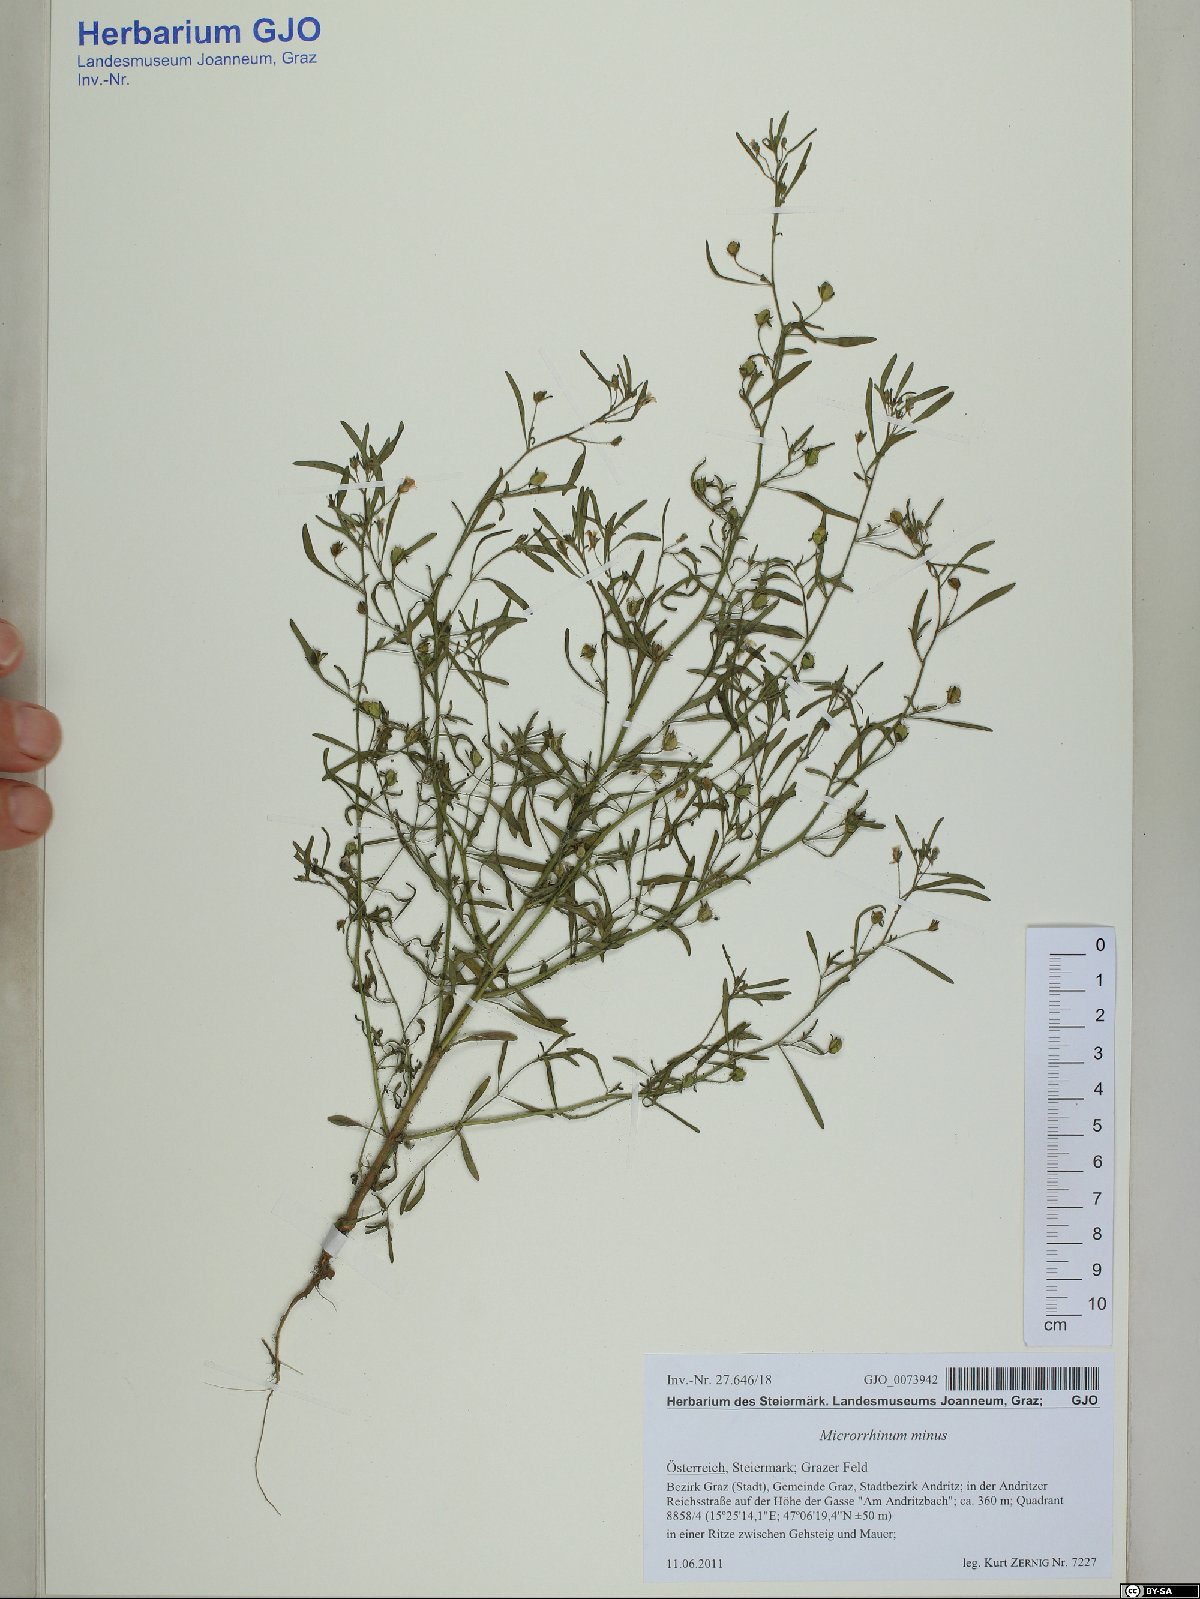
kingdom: Plantae
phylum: Tracheophyta
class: Magnoliopsida
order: Lamiales
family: Plantaginaceae
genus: Chaenorhinum
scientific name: Chaenorhinum minus
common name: Dwarf snapdragon
